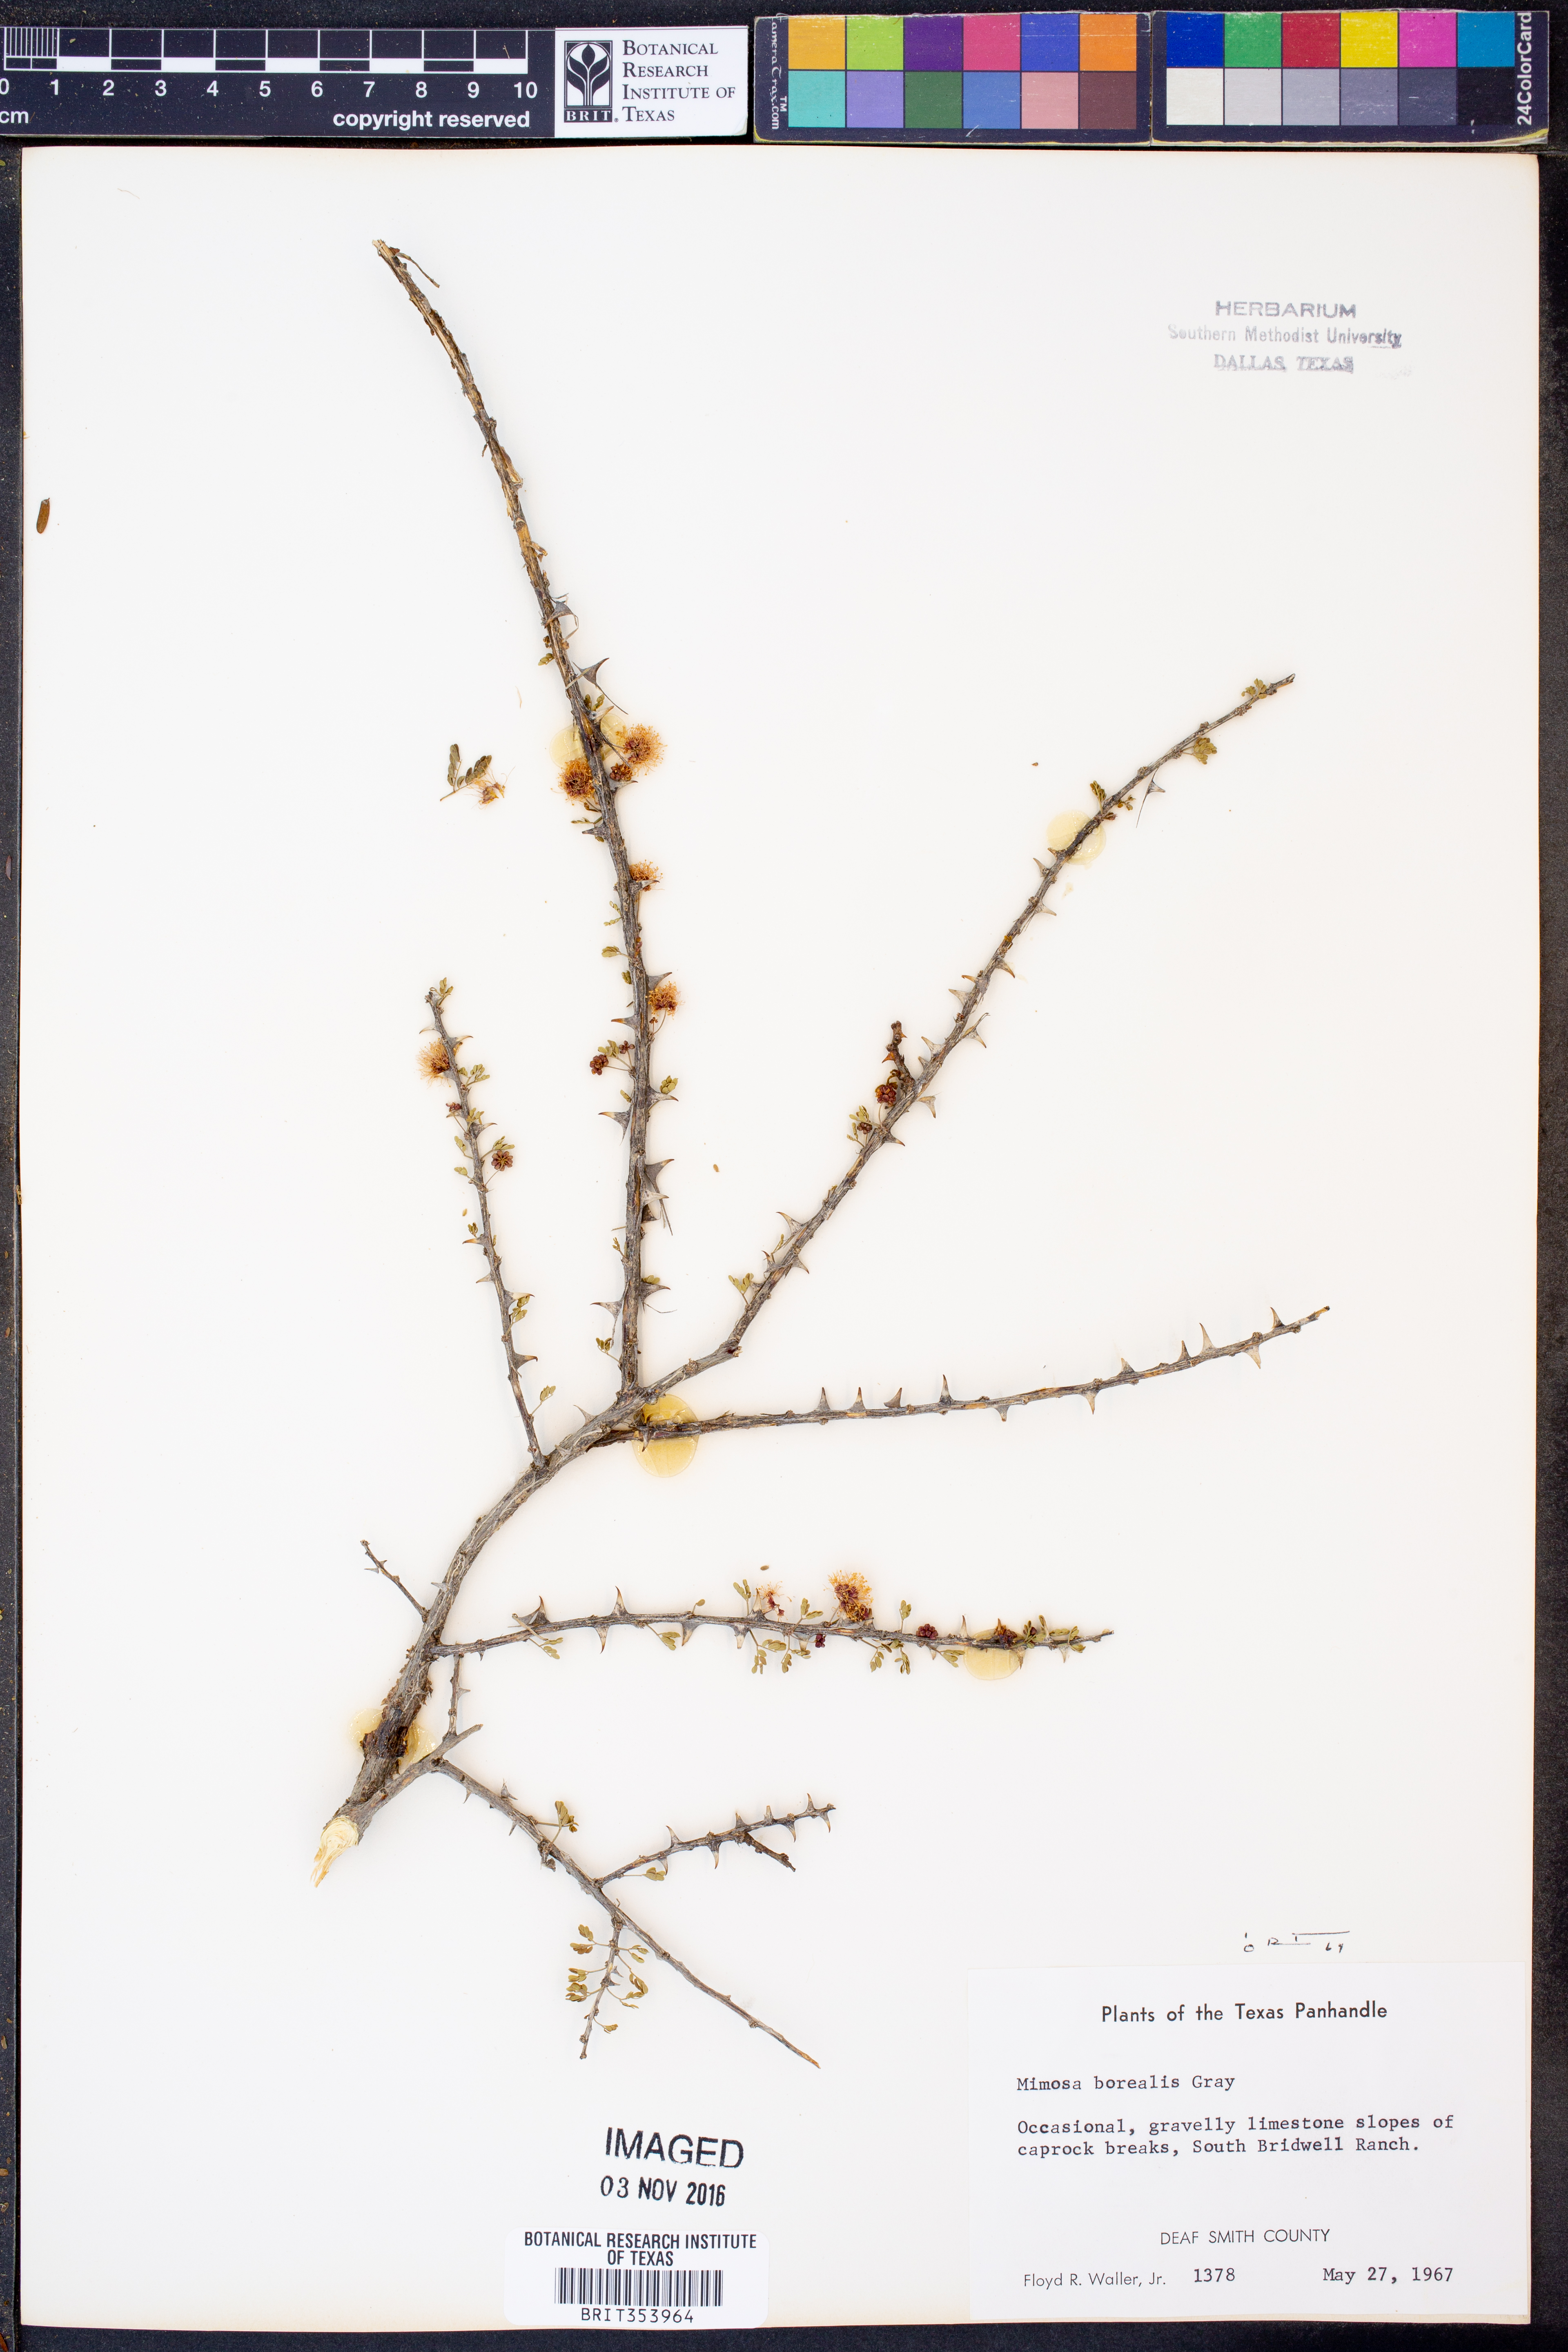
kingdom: Plantae
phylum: Tracheophyta
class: Magnoliopsida
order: Fabales
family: Fabaceae
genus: Mimosa
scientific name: Mimosa borealis
